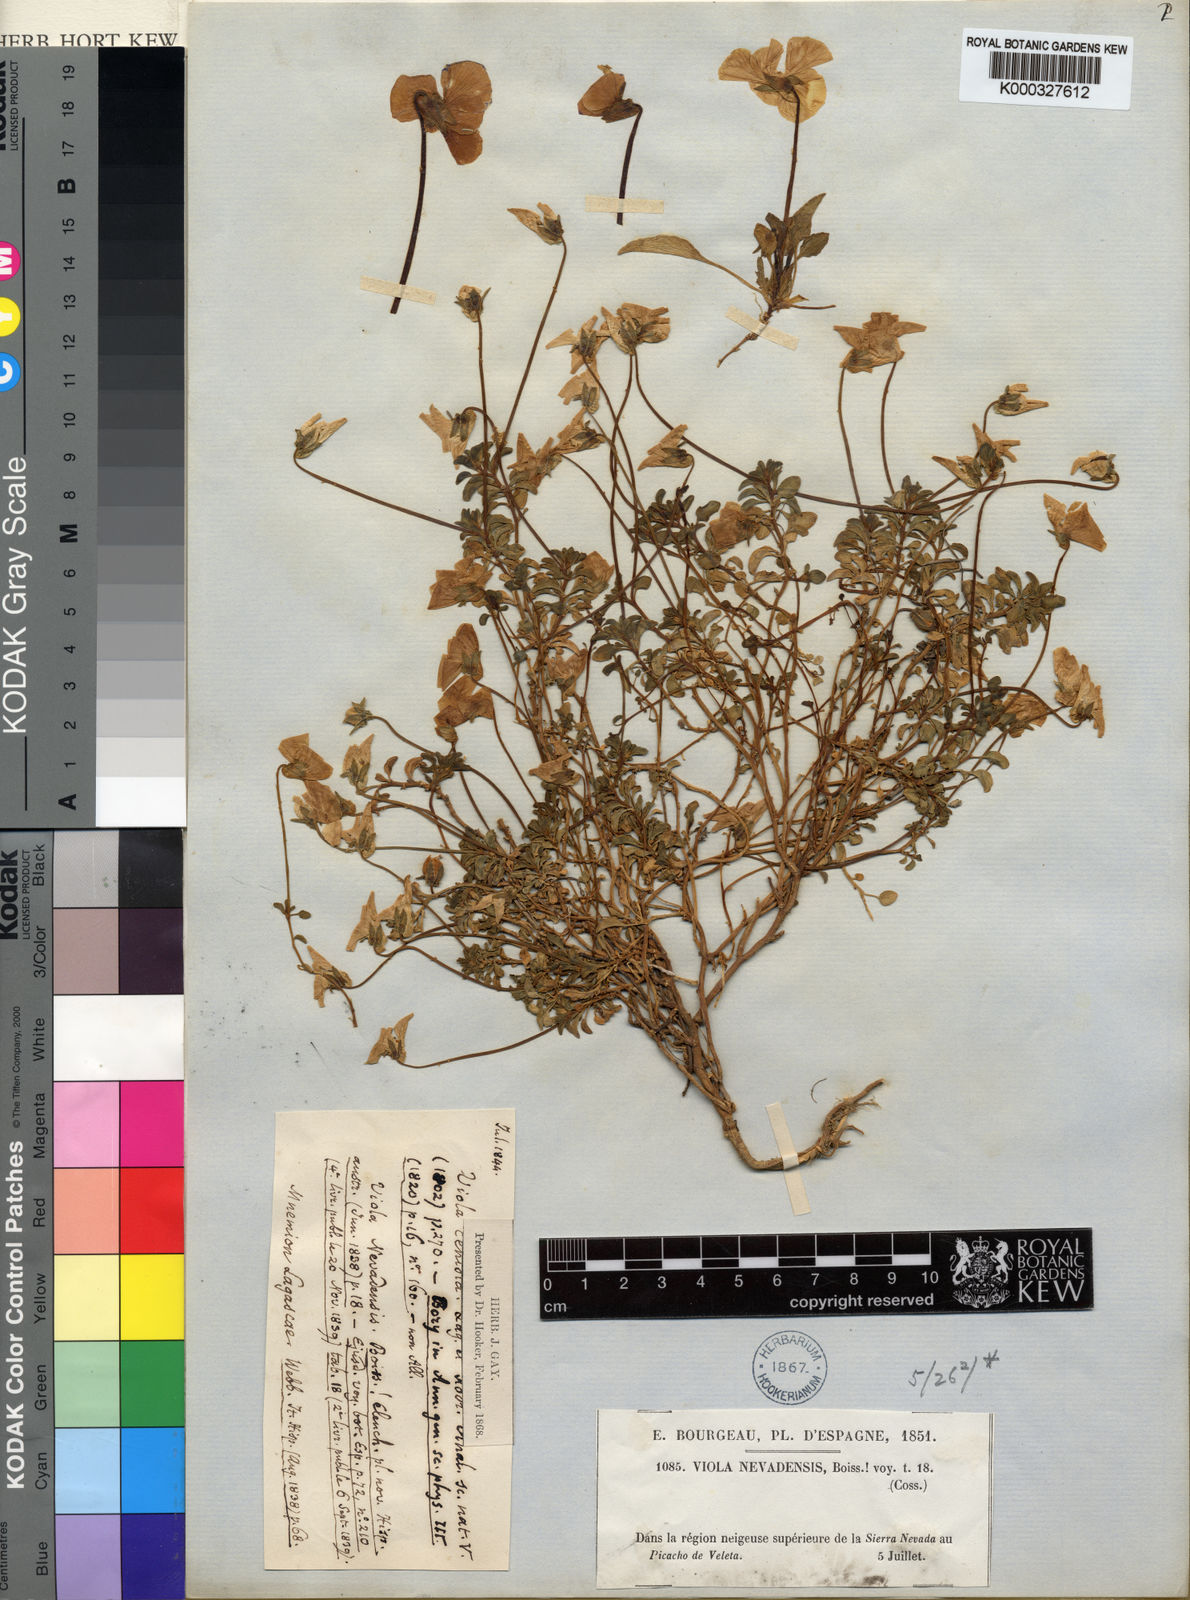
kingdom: Plantae
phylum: Tracheophyta
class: Magnoliopsida
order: Malpighiales
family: Violaceae
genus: Viola
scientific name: Viola crassiuscula
